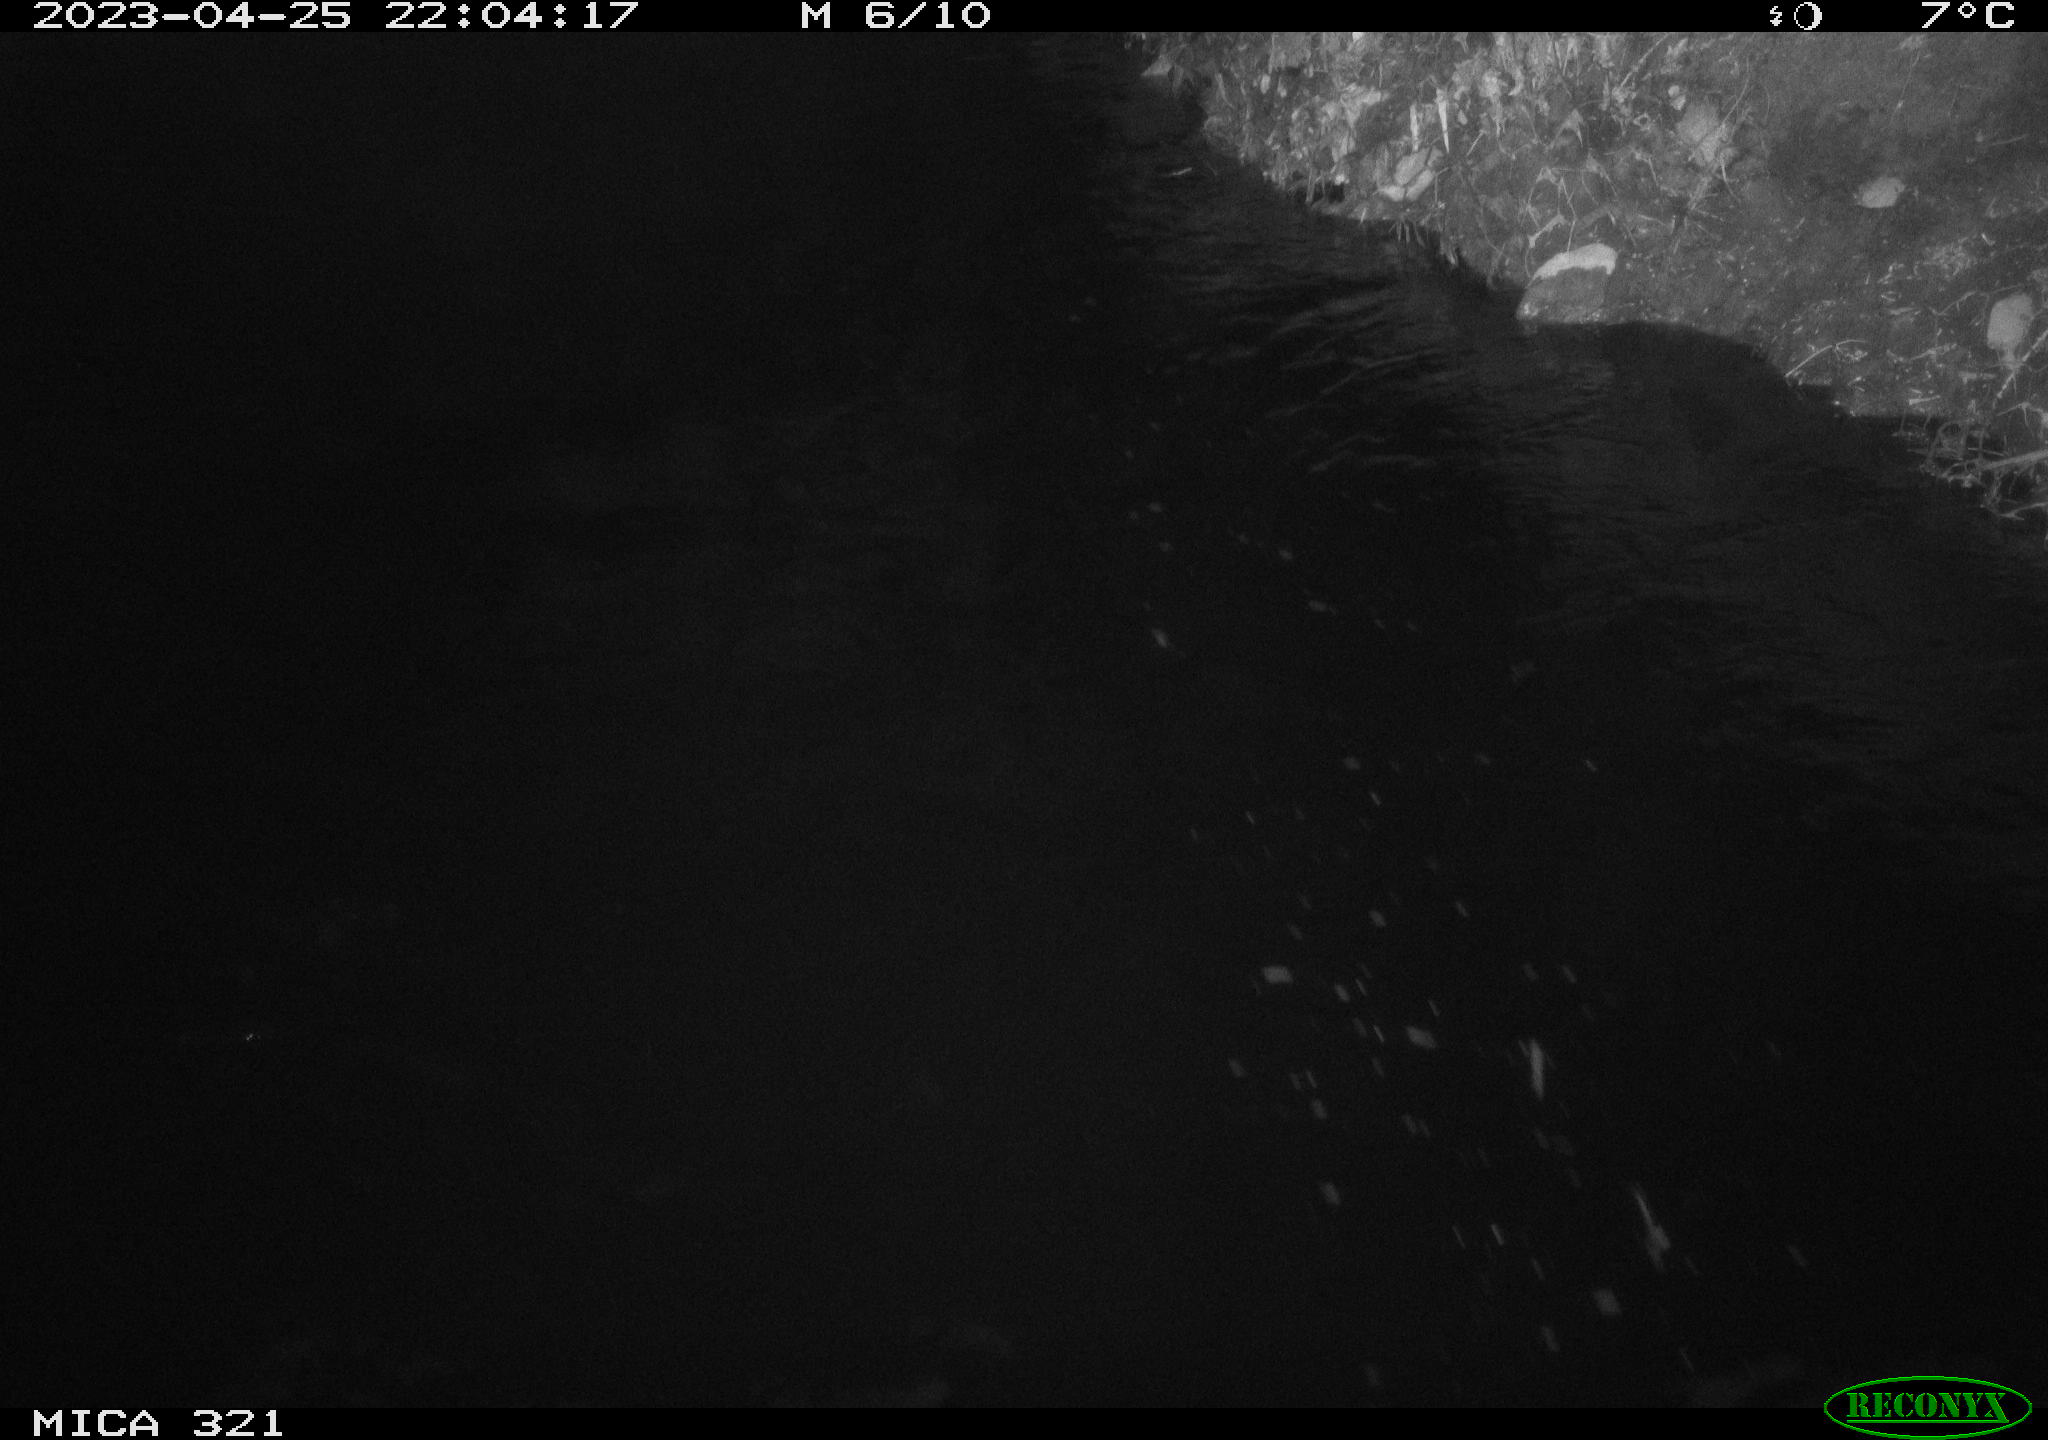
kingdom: Animalia
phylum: Chordata
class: Aves
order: Anseriformes
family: Anatidae
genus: Anas
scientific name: Anas
